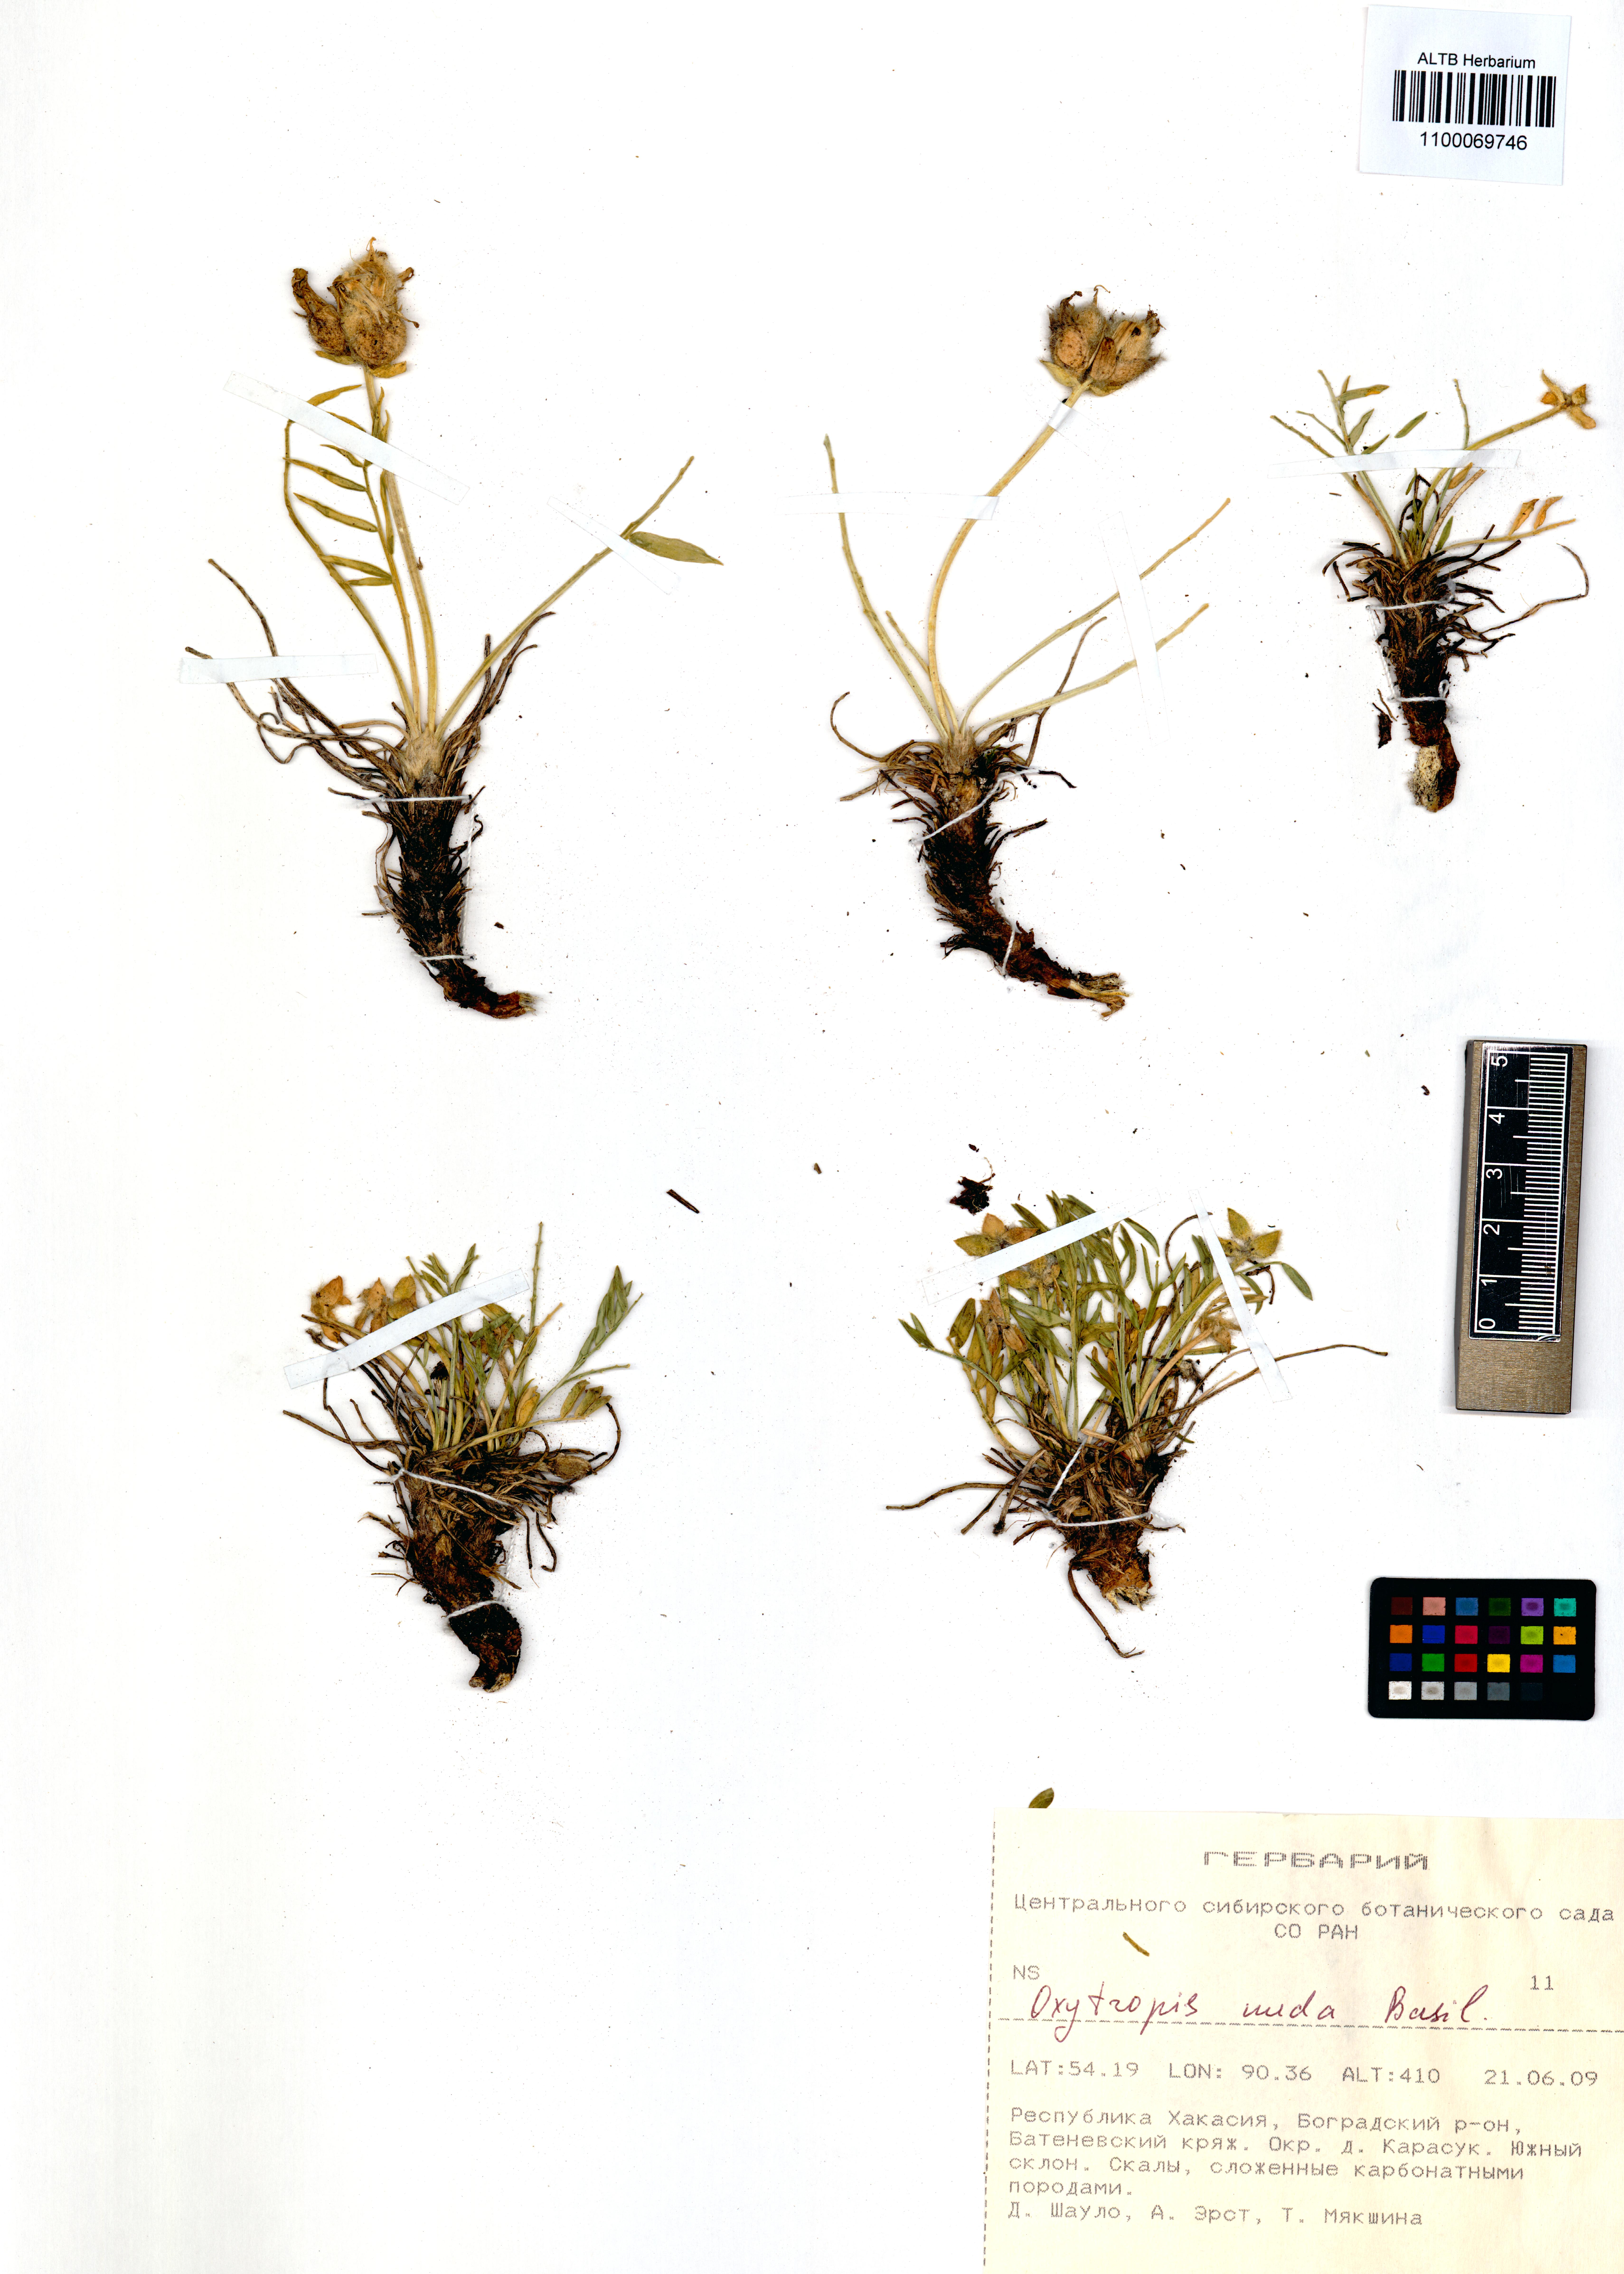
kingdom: Plantae
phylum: Tracheophyta
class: Magnoliopsida
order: Fabales
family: Fabaceae
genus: Oxytropis
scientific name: Oxytropis nuda
